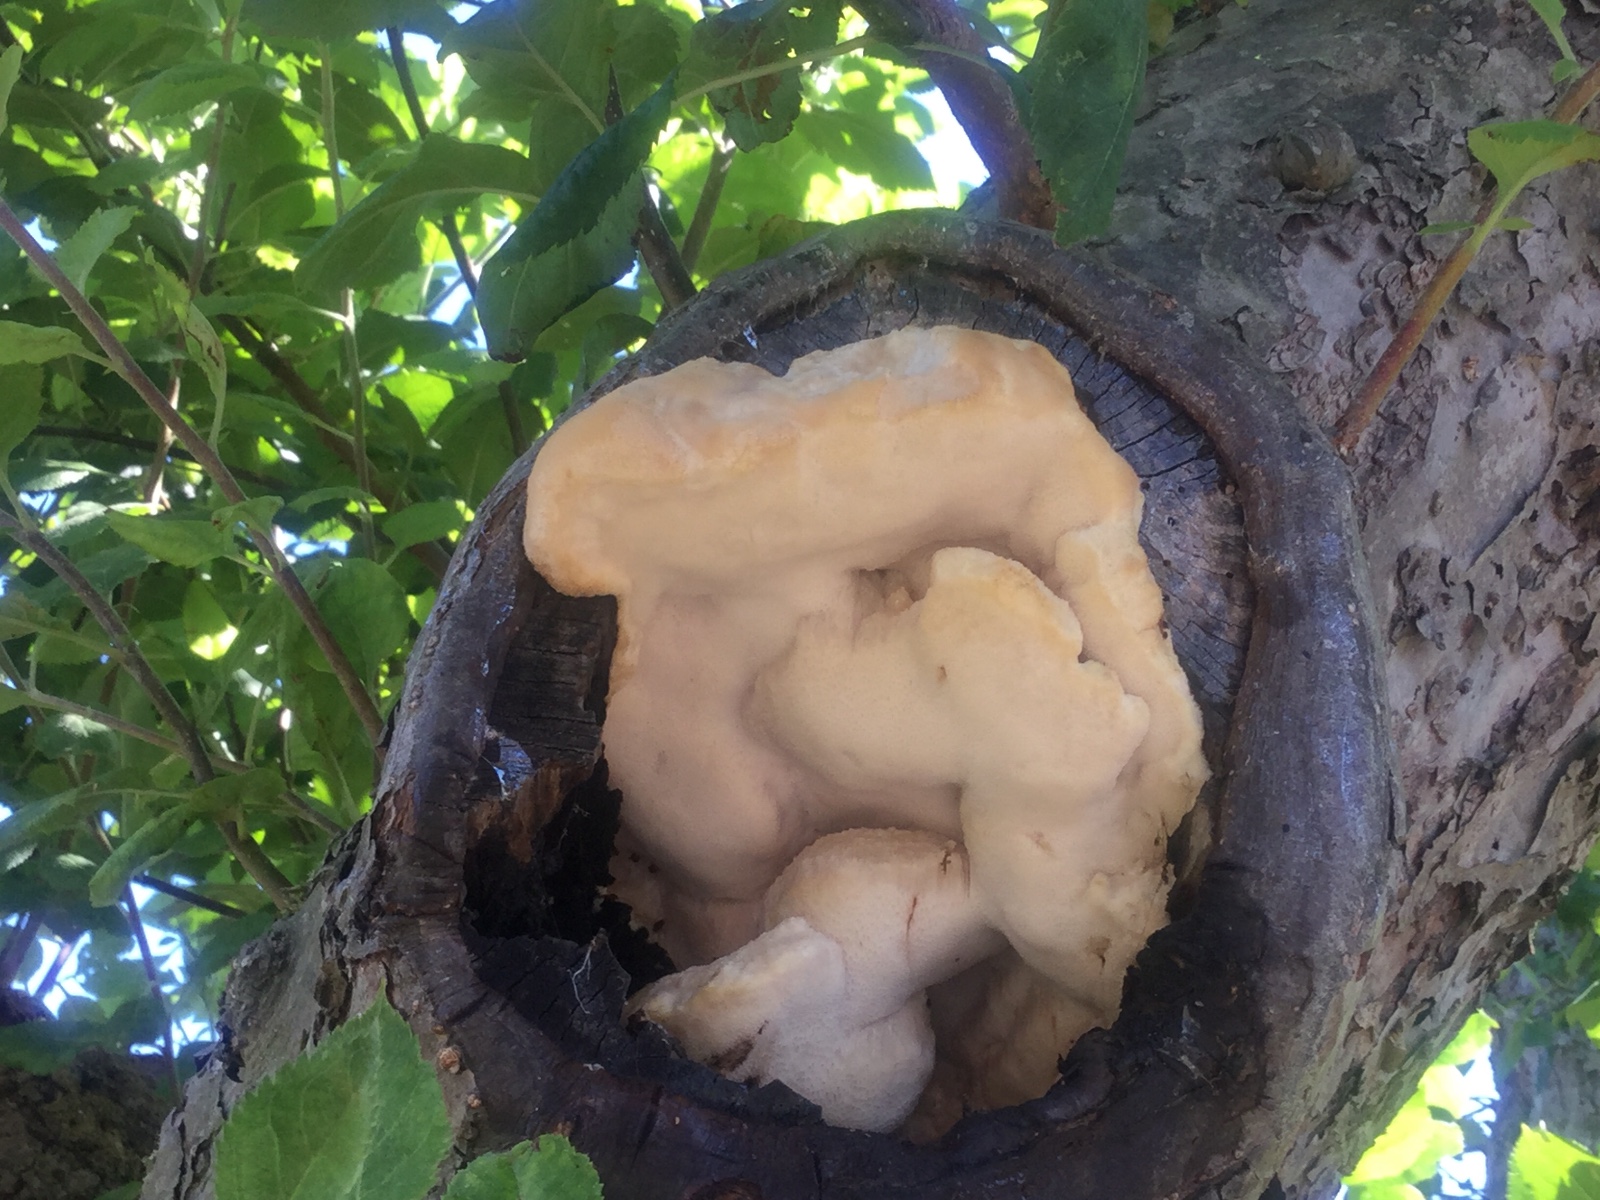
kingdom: Fungi
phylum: Basidiomycota
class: Agaricomycetes
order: Polyporales
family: Meruliaceae
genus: Pappia
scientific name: Pappia fissilis
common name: sej fedtporesvamp
